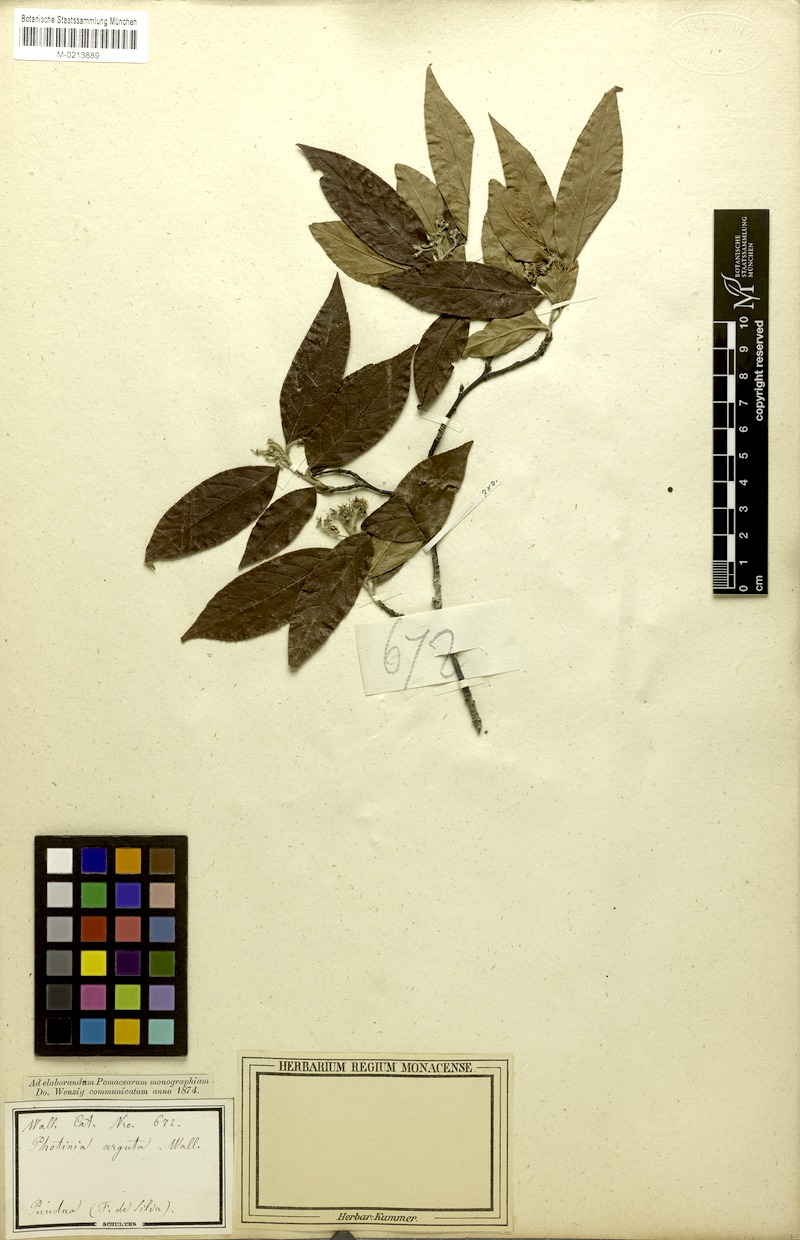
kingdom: Plantae
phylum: Tracheophyta
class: Magnoliopsida
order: Rosales
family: Rosaceae
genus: Pourthiaea
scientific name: Pourthiaea arguta
